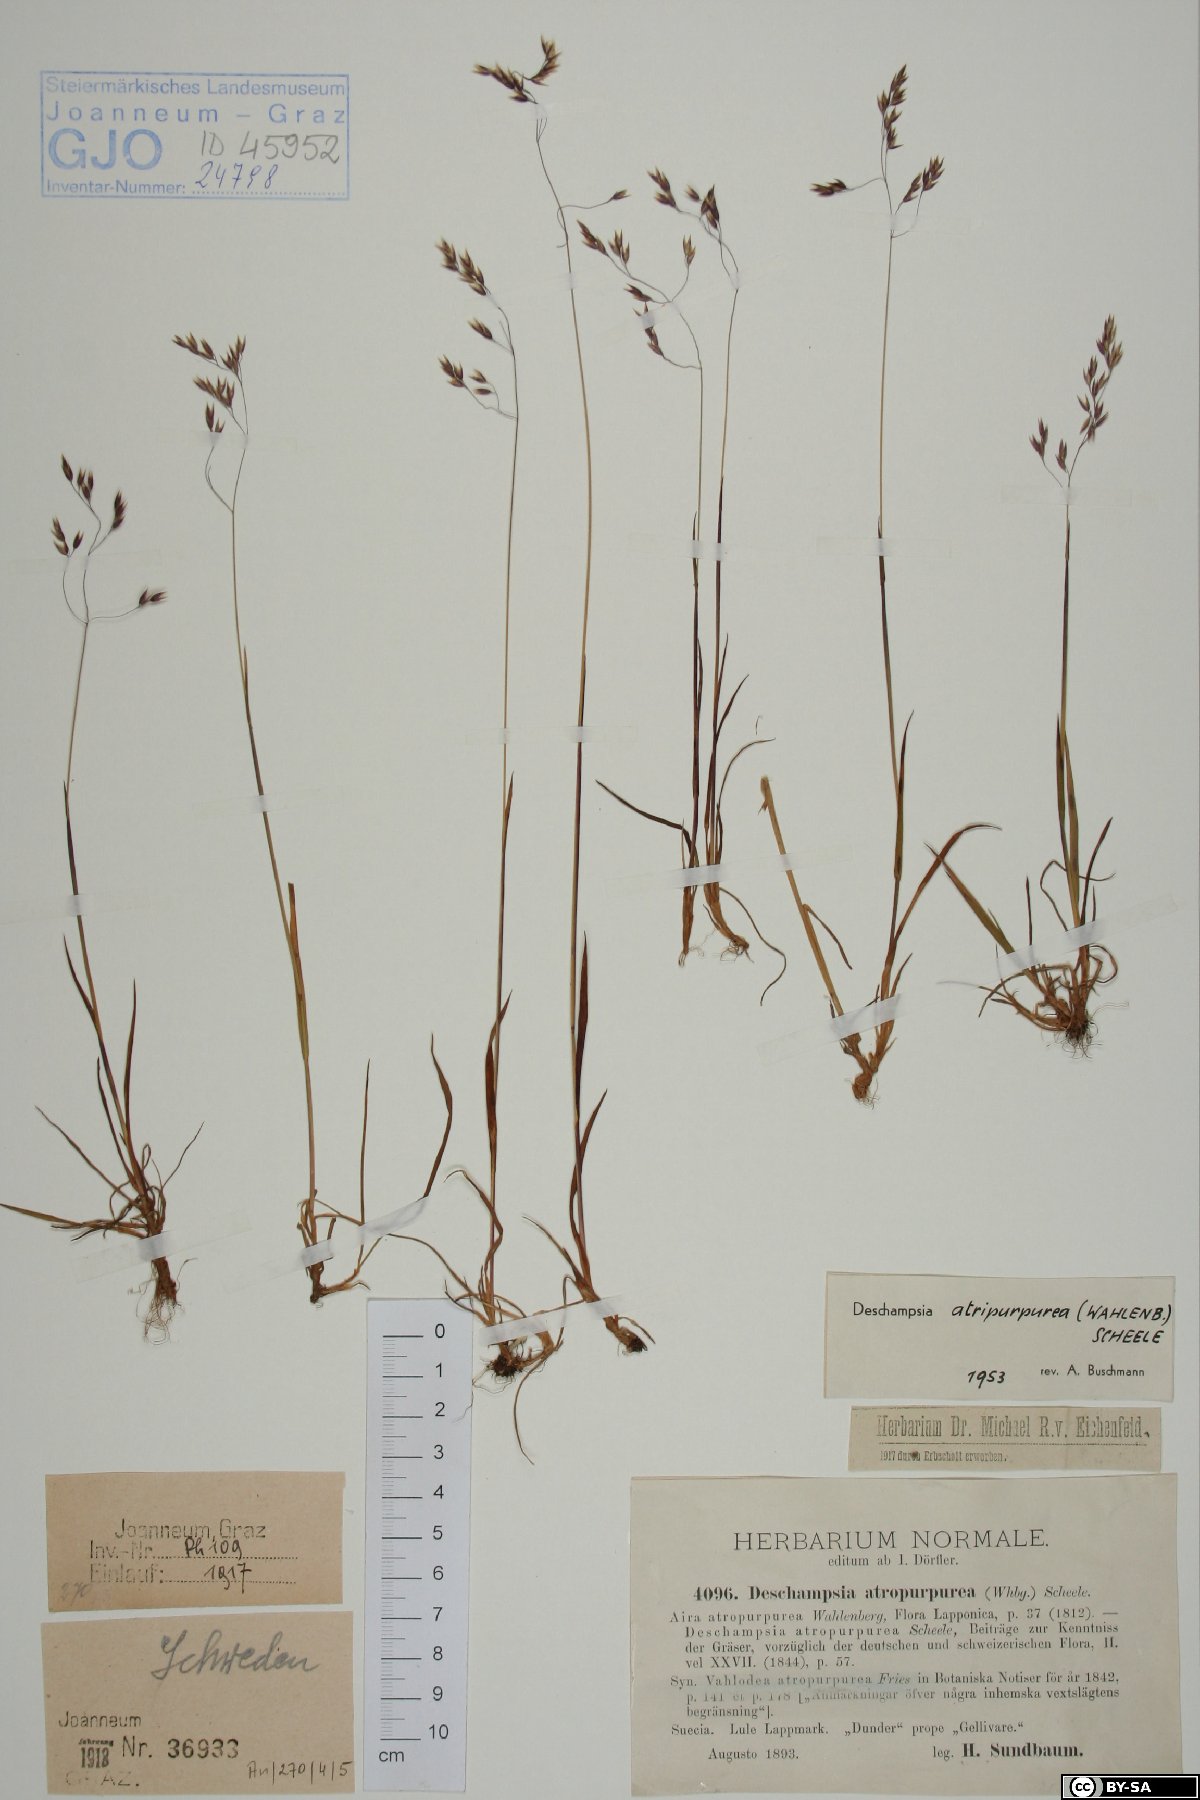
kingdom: Plantae
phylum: Tracheophyta
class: Liliopsida
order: Poales
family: Poaceae
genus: Vahlodea
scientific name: Vahlodea atropurpurea
